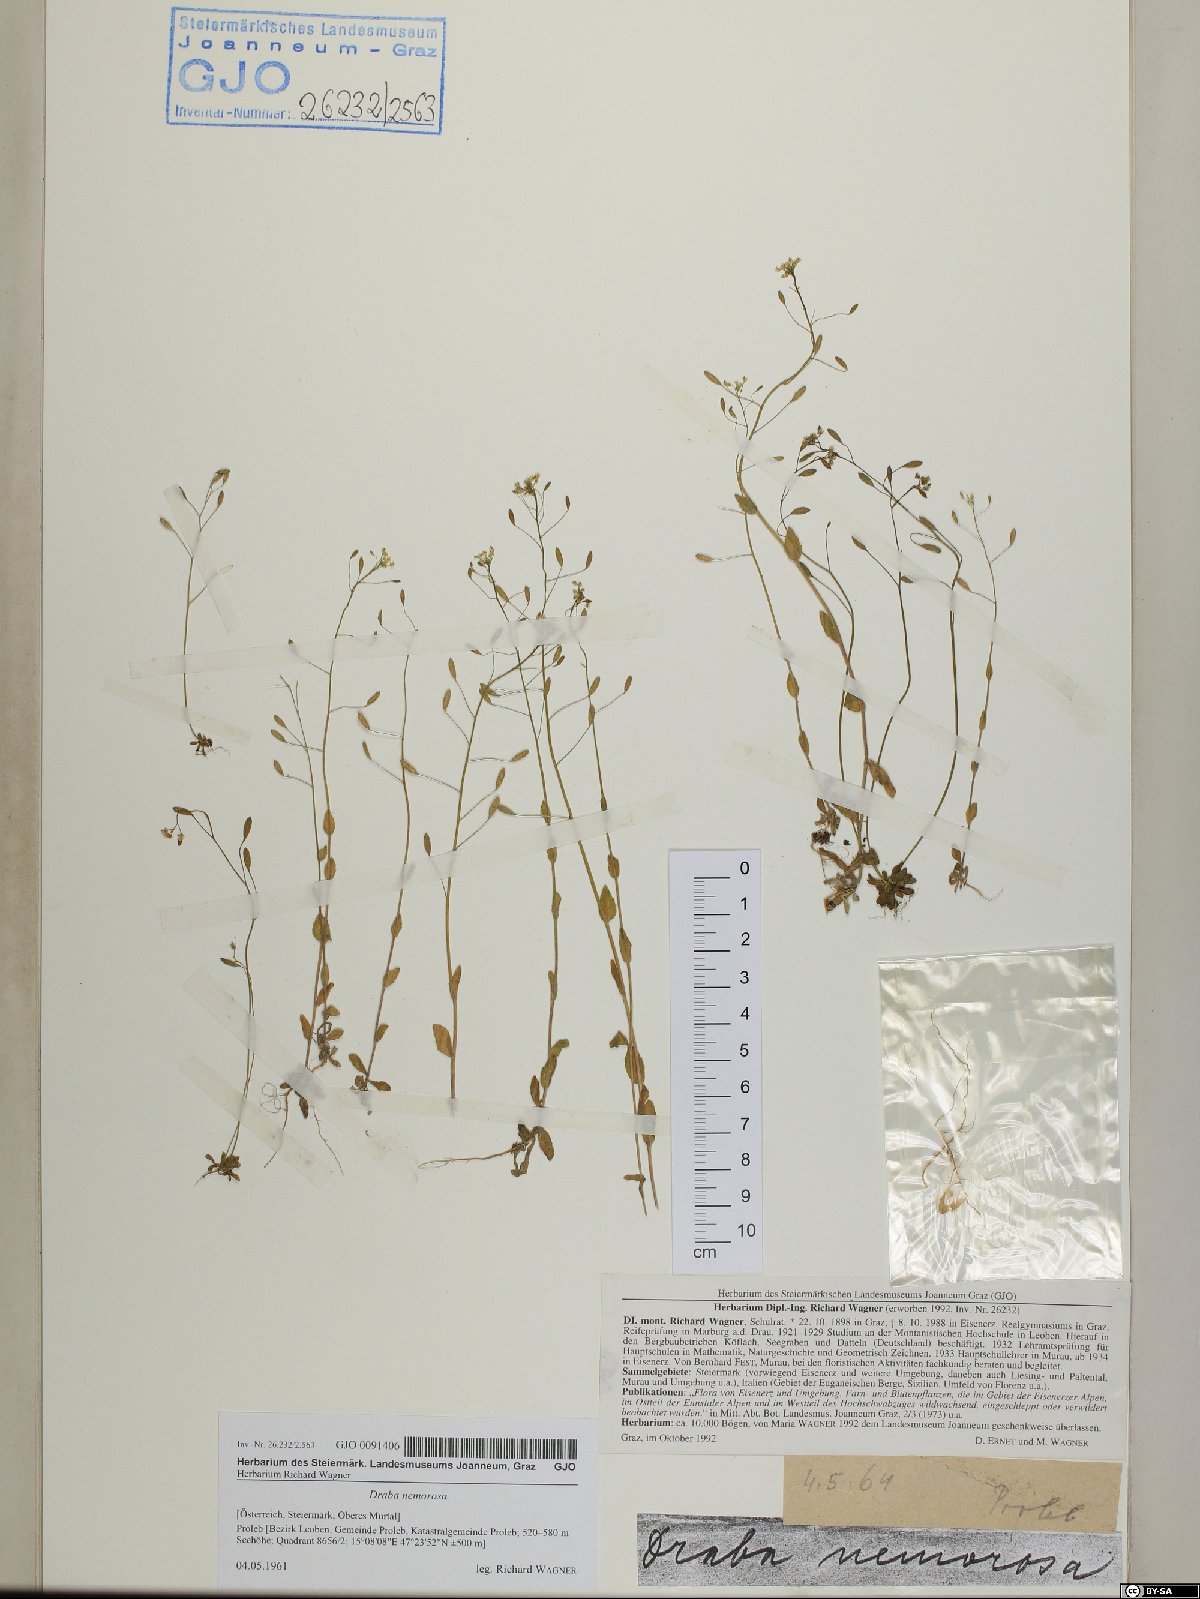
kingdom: Plantae
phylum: Tracheophyta
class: Magnoliopsida
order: Brassicales
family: Brassicaceae
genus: Draba
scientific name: Draba nemorosa
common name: Wood whitlow-grass
